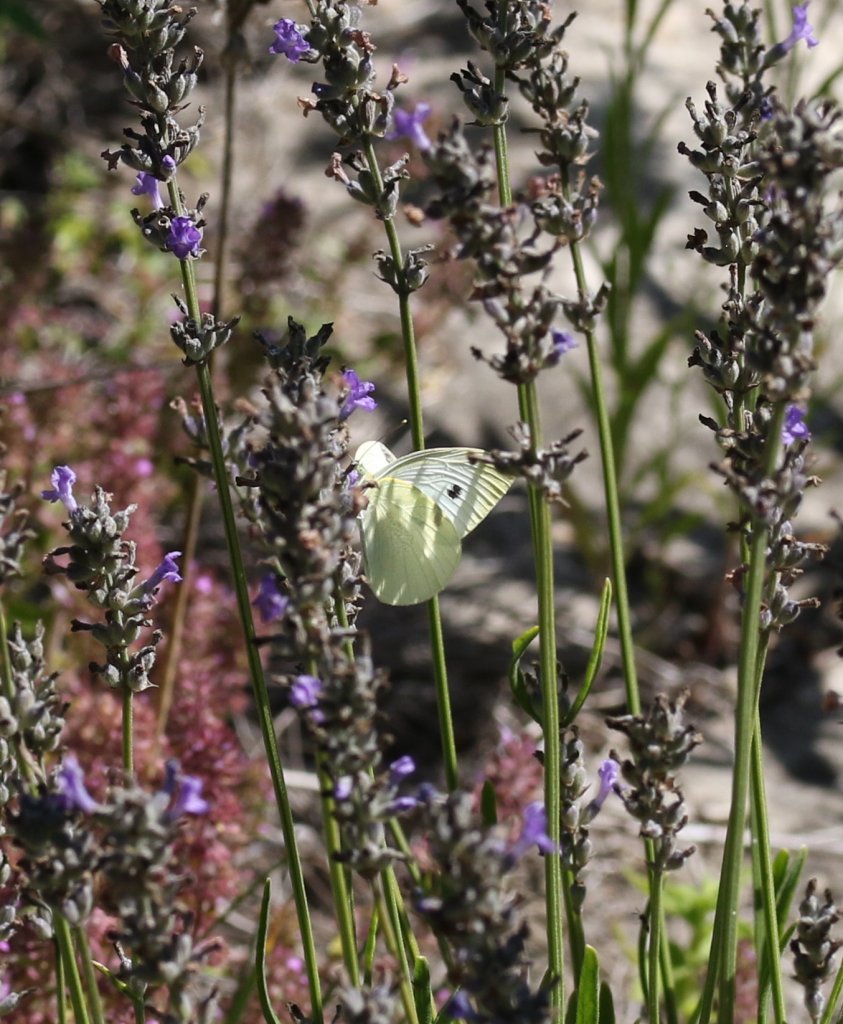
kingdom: Animalia
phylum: Arthropoda
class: Insecta
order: Lepidoptera
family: Pieridae
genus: Pieris
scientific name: Pieris rapae
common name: Cabbage White
